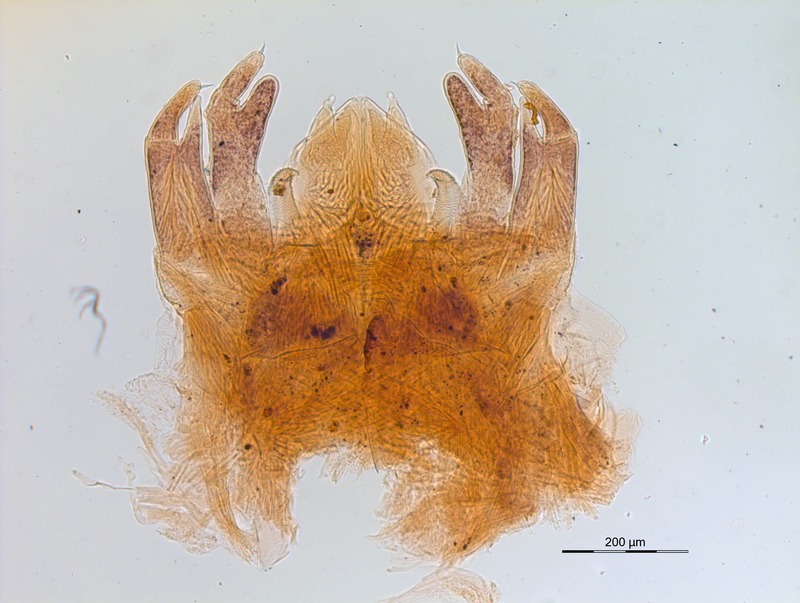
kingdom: Animalia
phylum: Arthropoda
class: Diplopoda
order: Glomerida
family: Glomeridellidae
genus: Glomeridella
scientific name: Glomeridella larii
